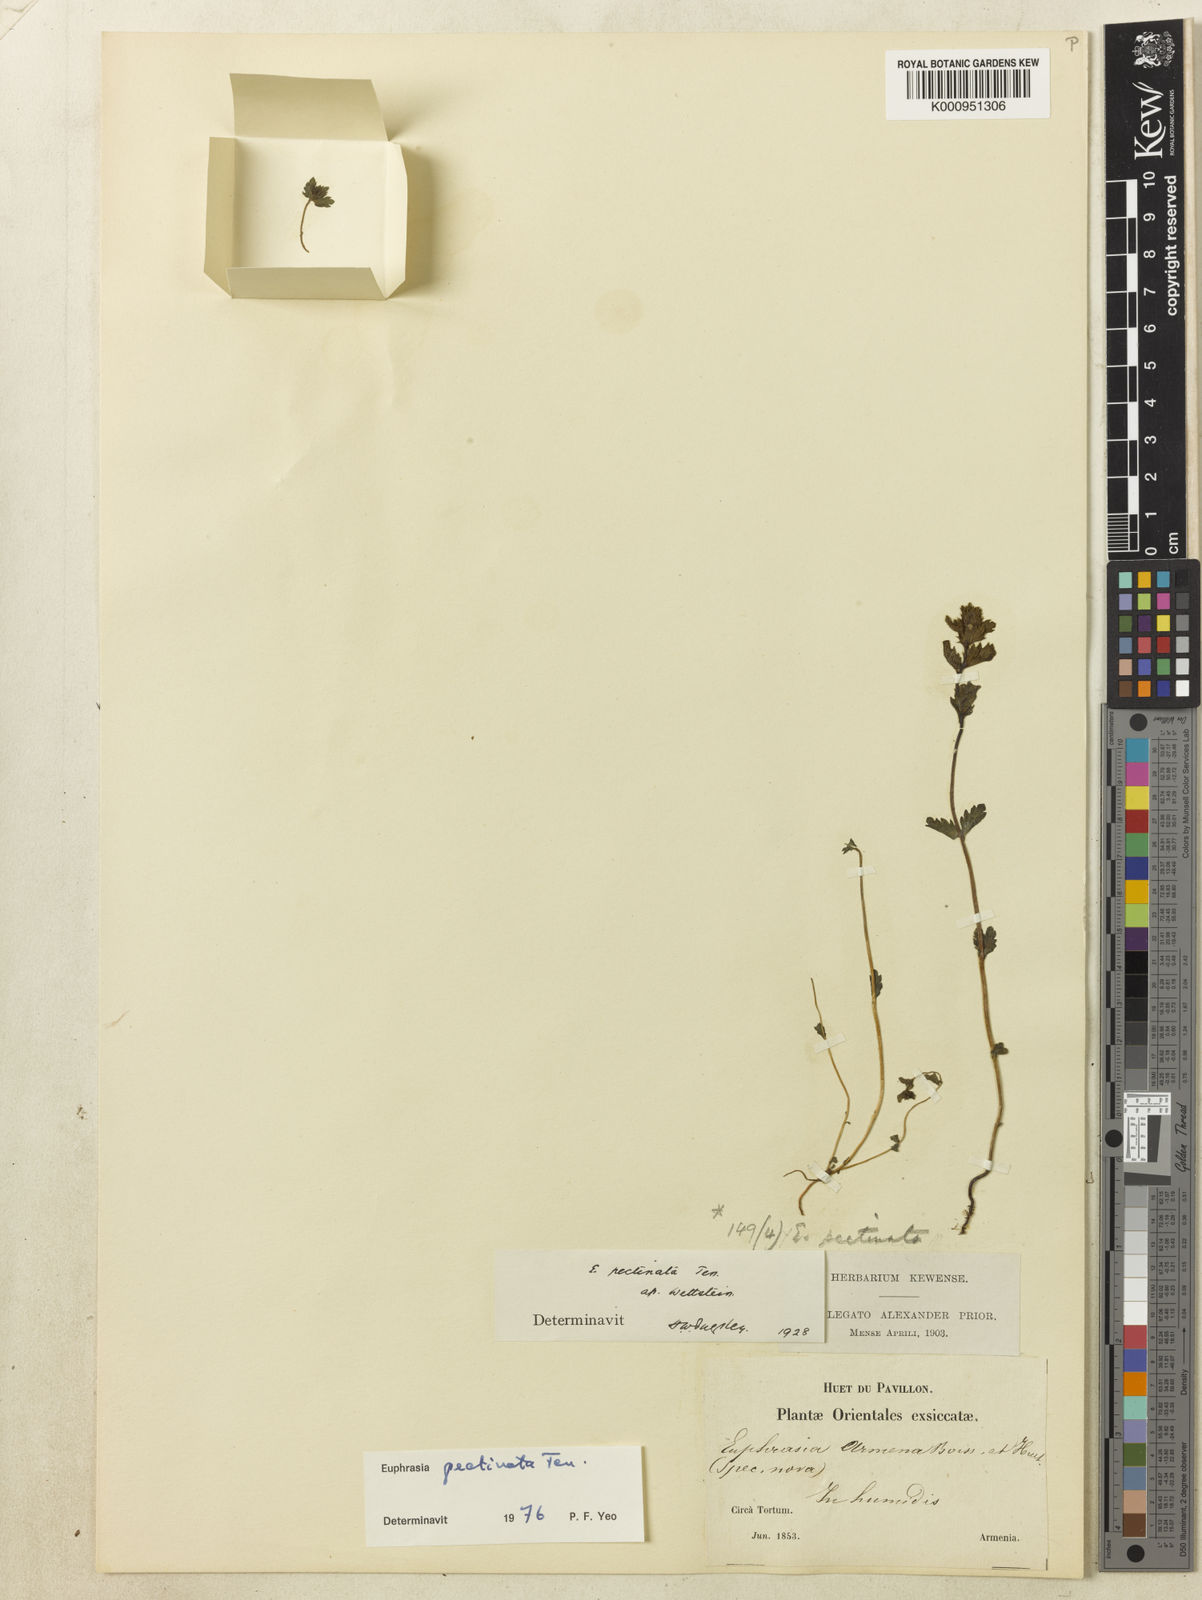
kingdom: Plantae
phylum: Tracheophyta
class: Magnoliopsida
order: Lamiales
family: Orobanchaceae
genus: Euphrasia
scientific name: Euphrasia pectinata
